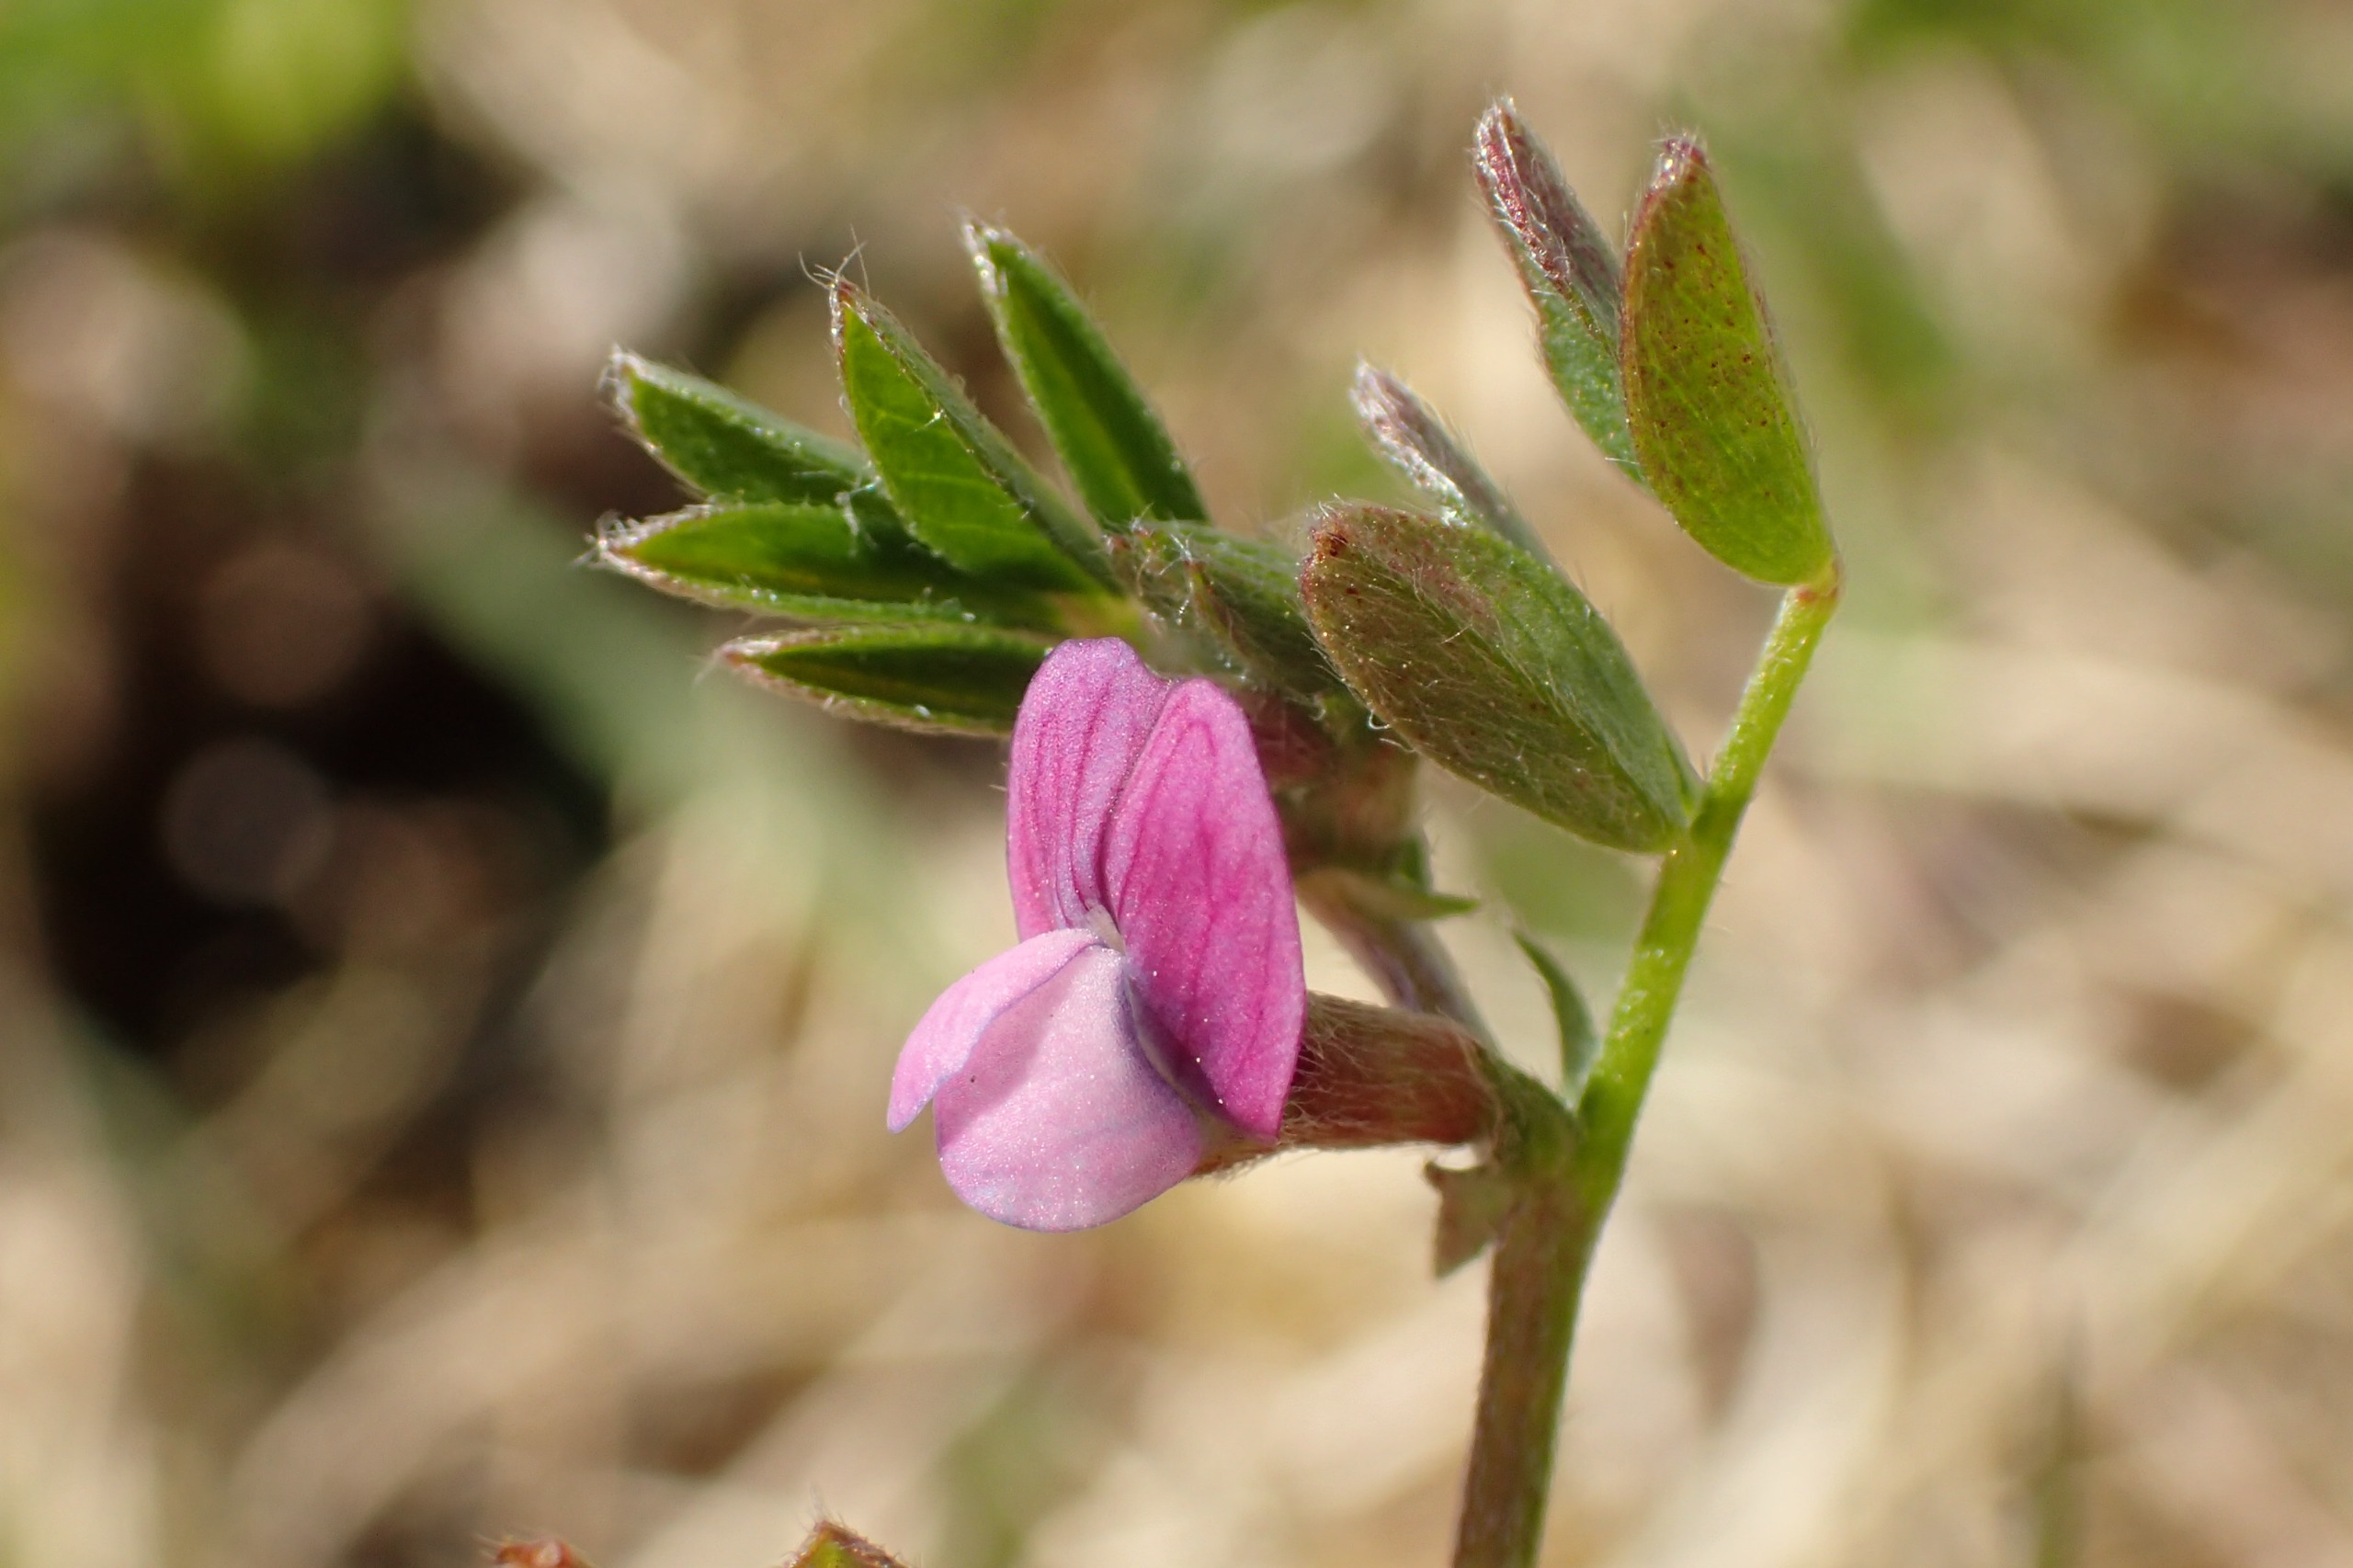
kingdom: Plantae
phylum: Tracheophyta
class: Magnoliopsida
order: Fabales
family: Fabaceae
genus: Vicia
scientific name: Vicia lathyroides
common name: Vår-vikke
